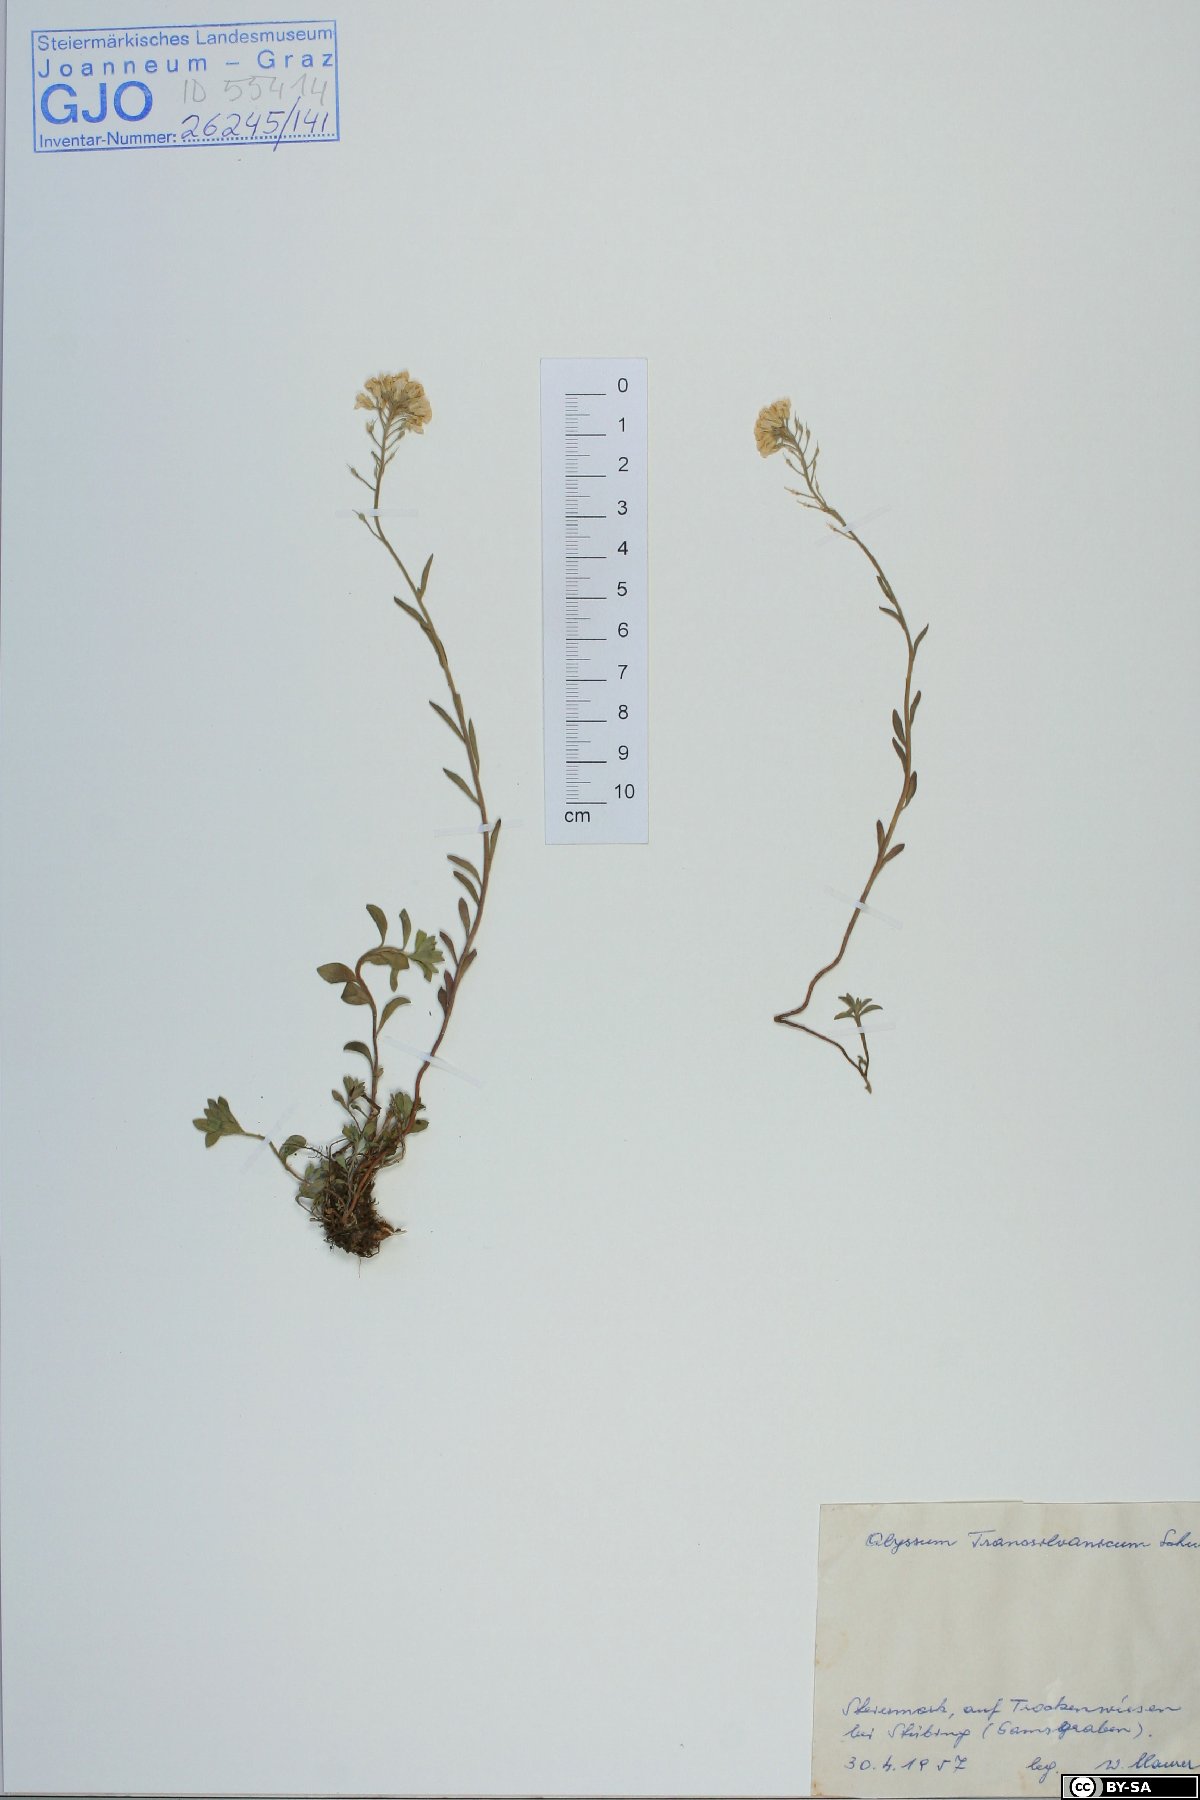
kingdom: Plantae
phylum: Tracheophyta
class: Magnoliopsida
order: Brassicales
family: Brassicaceae
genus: Alyssum
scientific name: Alyssum repens
